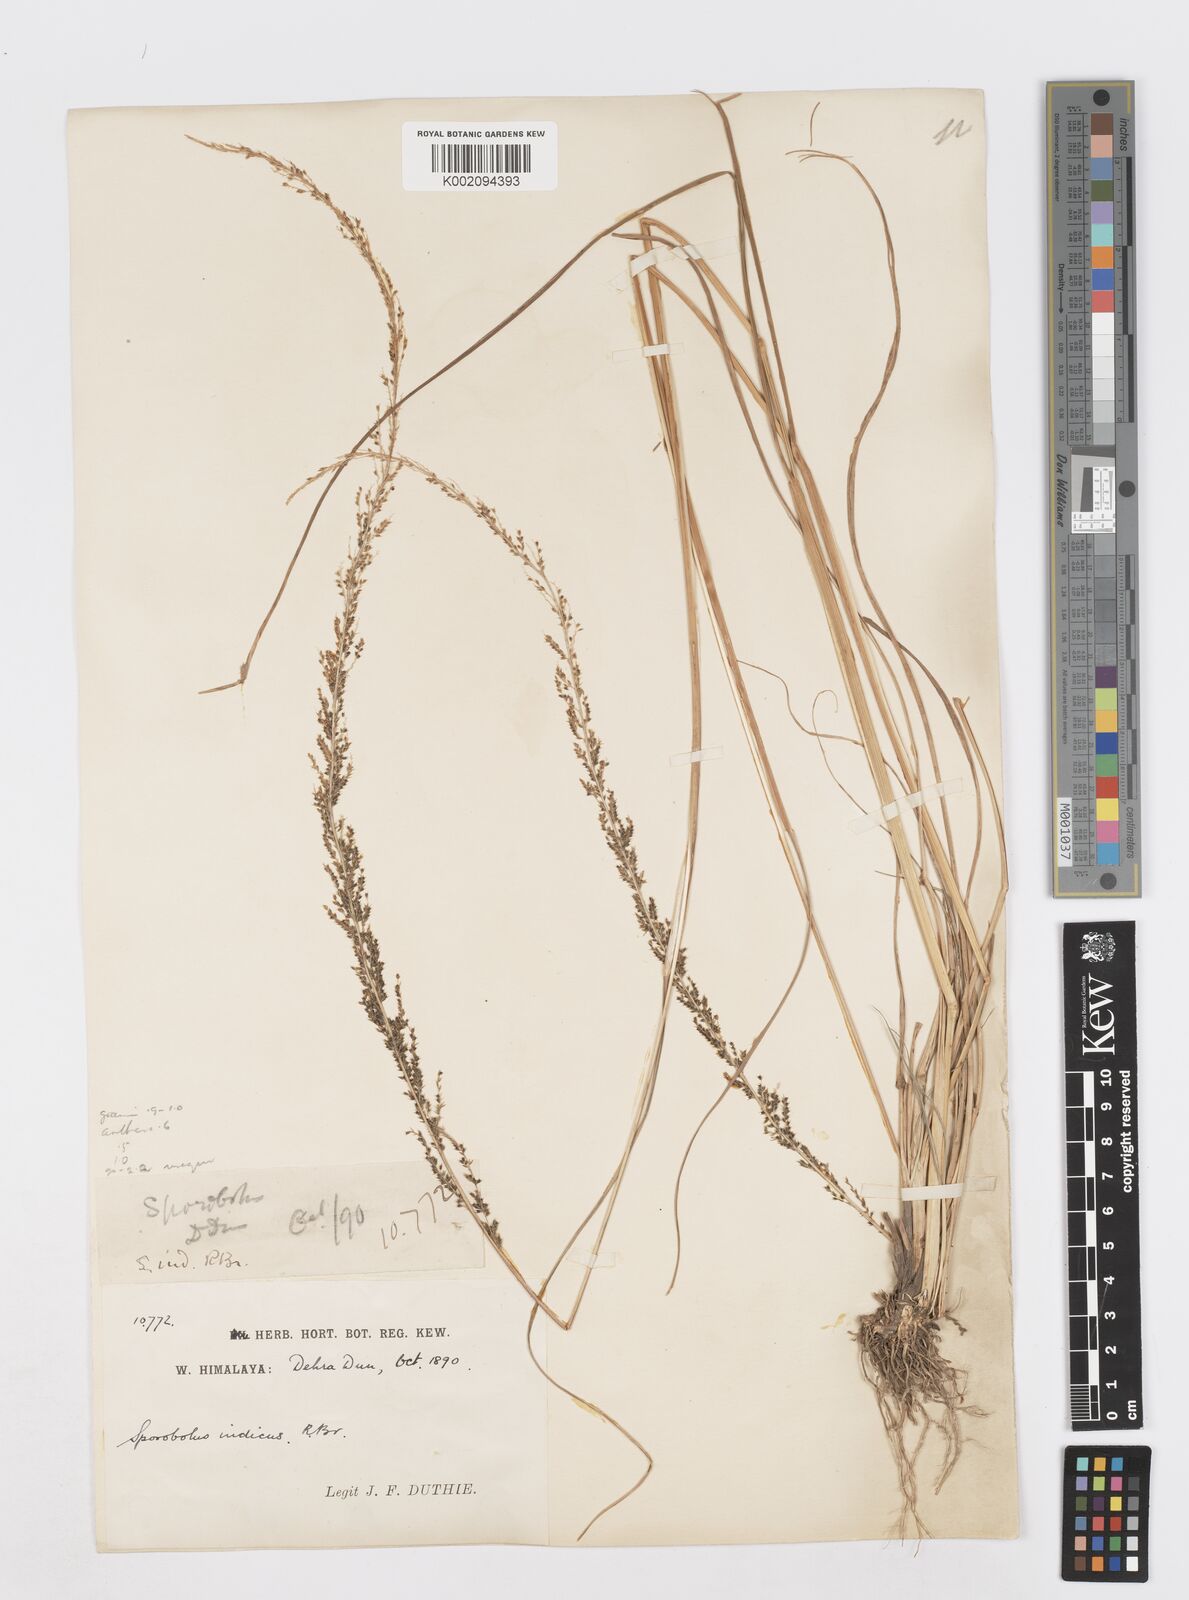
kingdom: Plantae
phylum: Tracheophyta
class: Liliopsida
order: Poales
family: Poaceae
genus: Sporobolus
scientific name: Sporobolus fertilis
